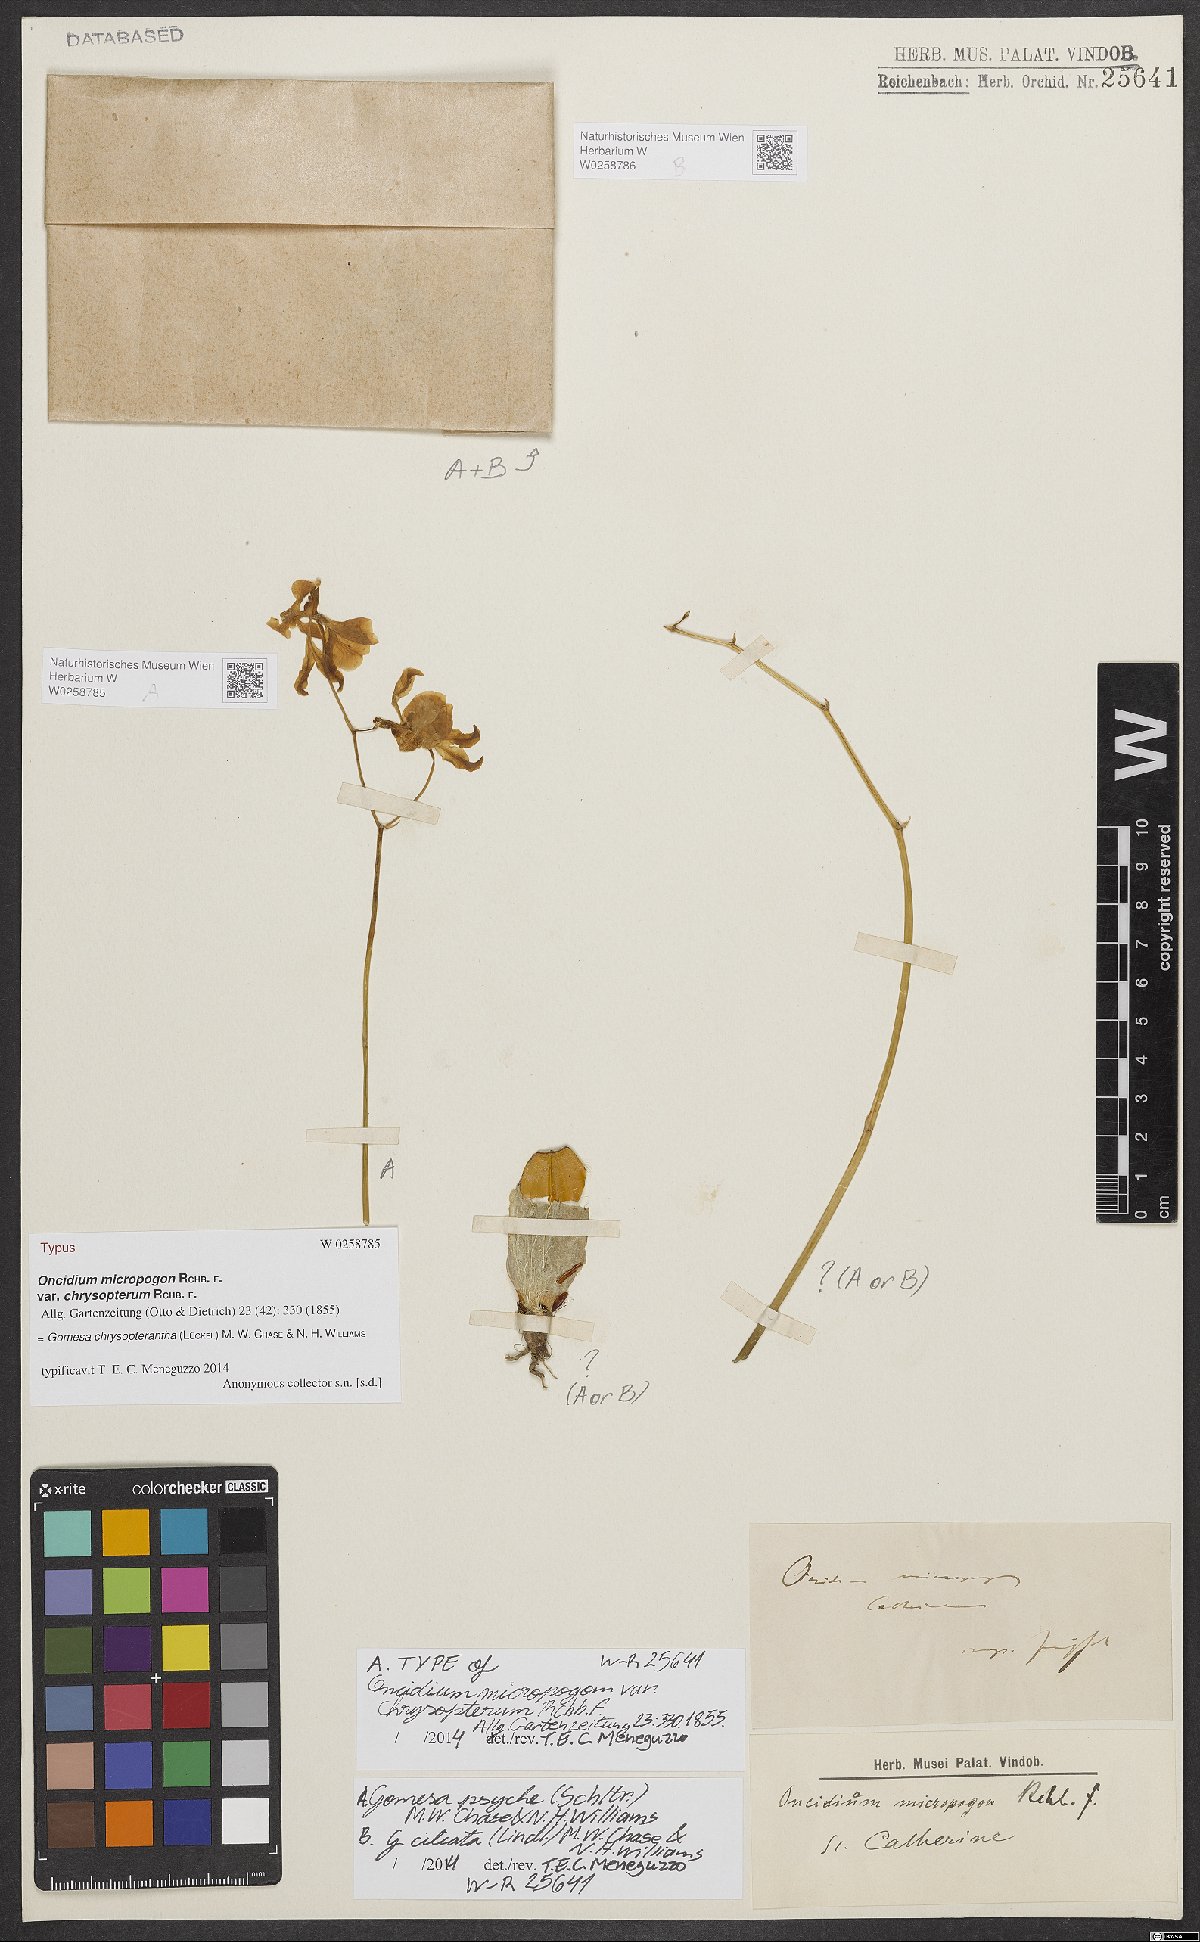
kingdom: Plantae
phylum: Tracheophyta
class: Liliopsida
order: Asparagales
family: Orchidaceae
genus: Gomesa
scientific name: Gomesa chrysopterantha
